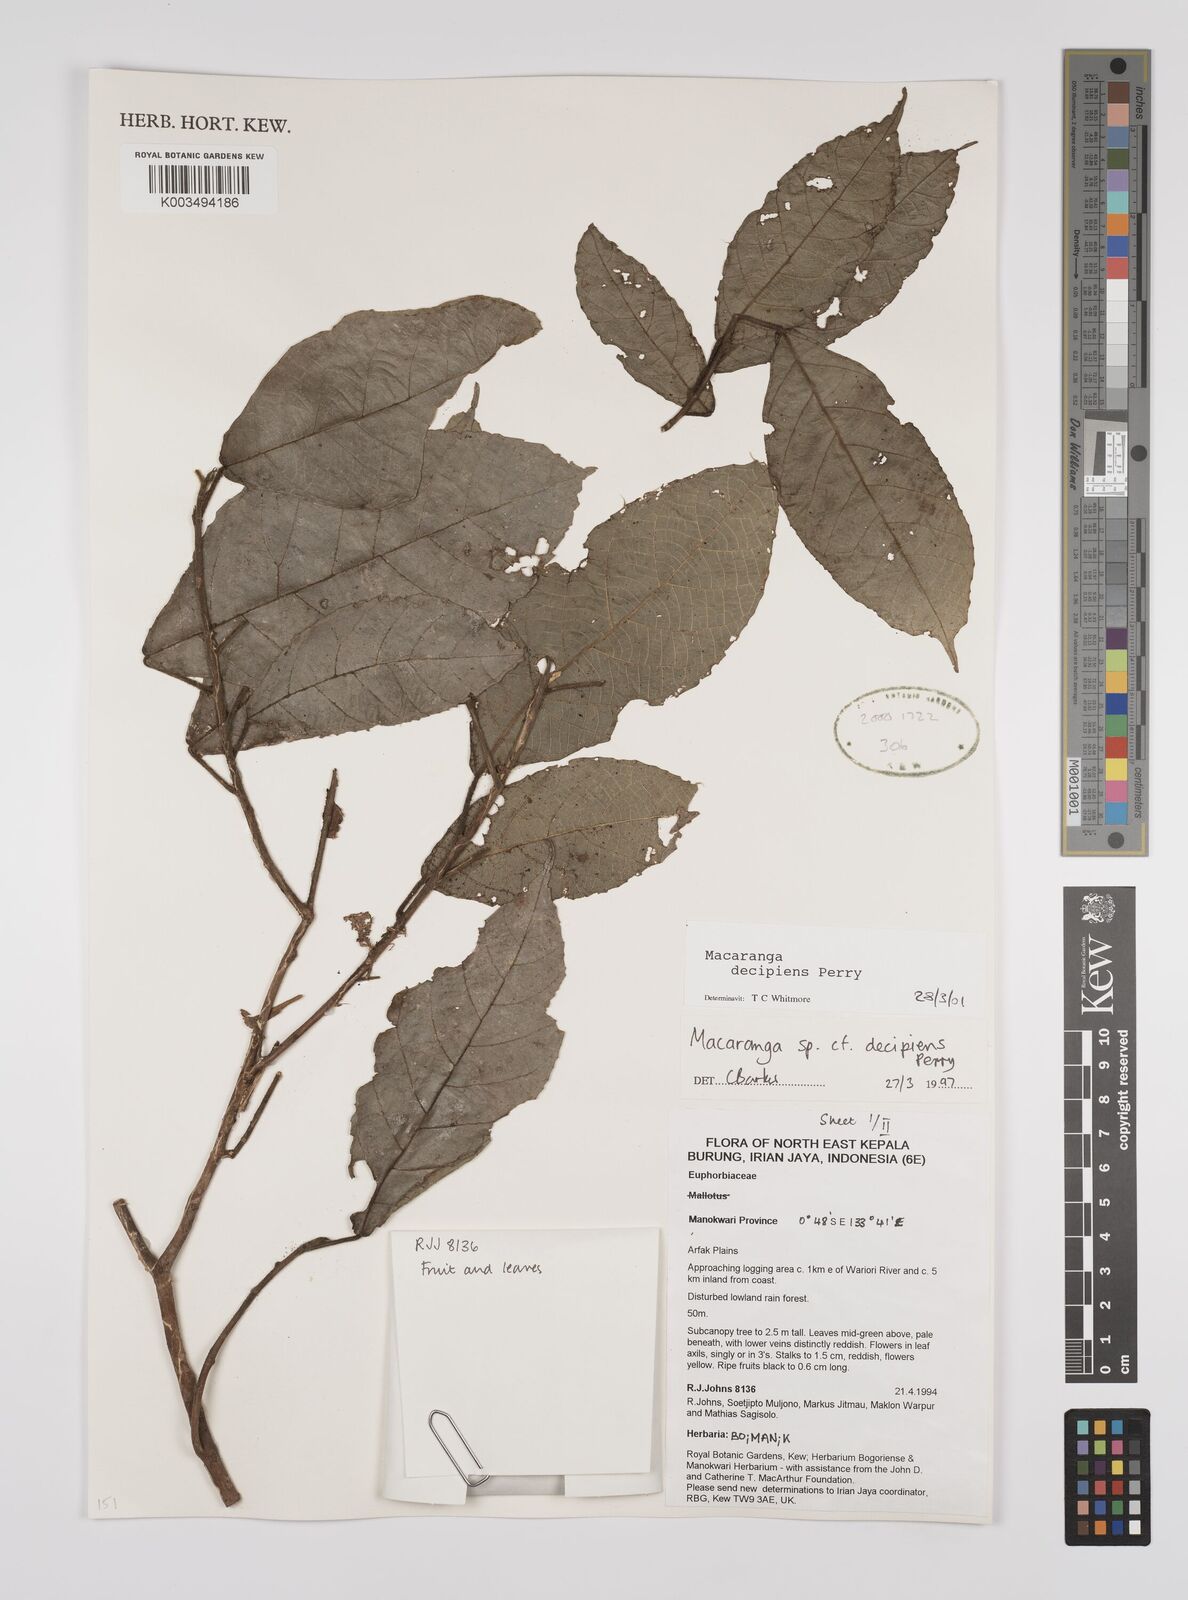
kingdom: Plantae
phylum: Tracheophyta
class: Magnoliopsida
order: Malpighiales
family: Euphorbiaceae
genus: Macaranga
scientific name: Macaranga decipiens
